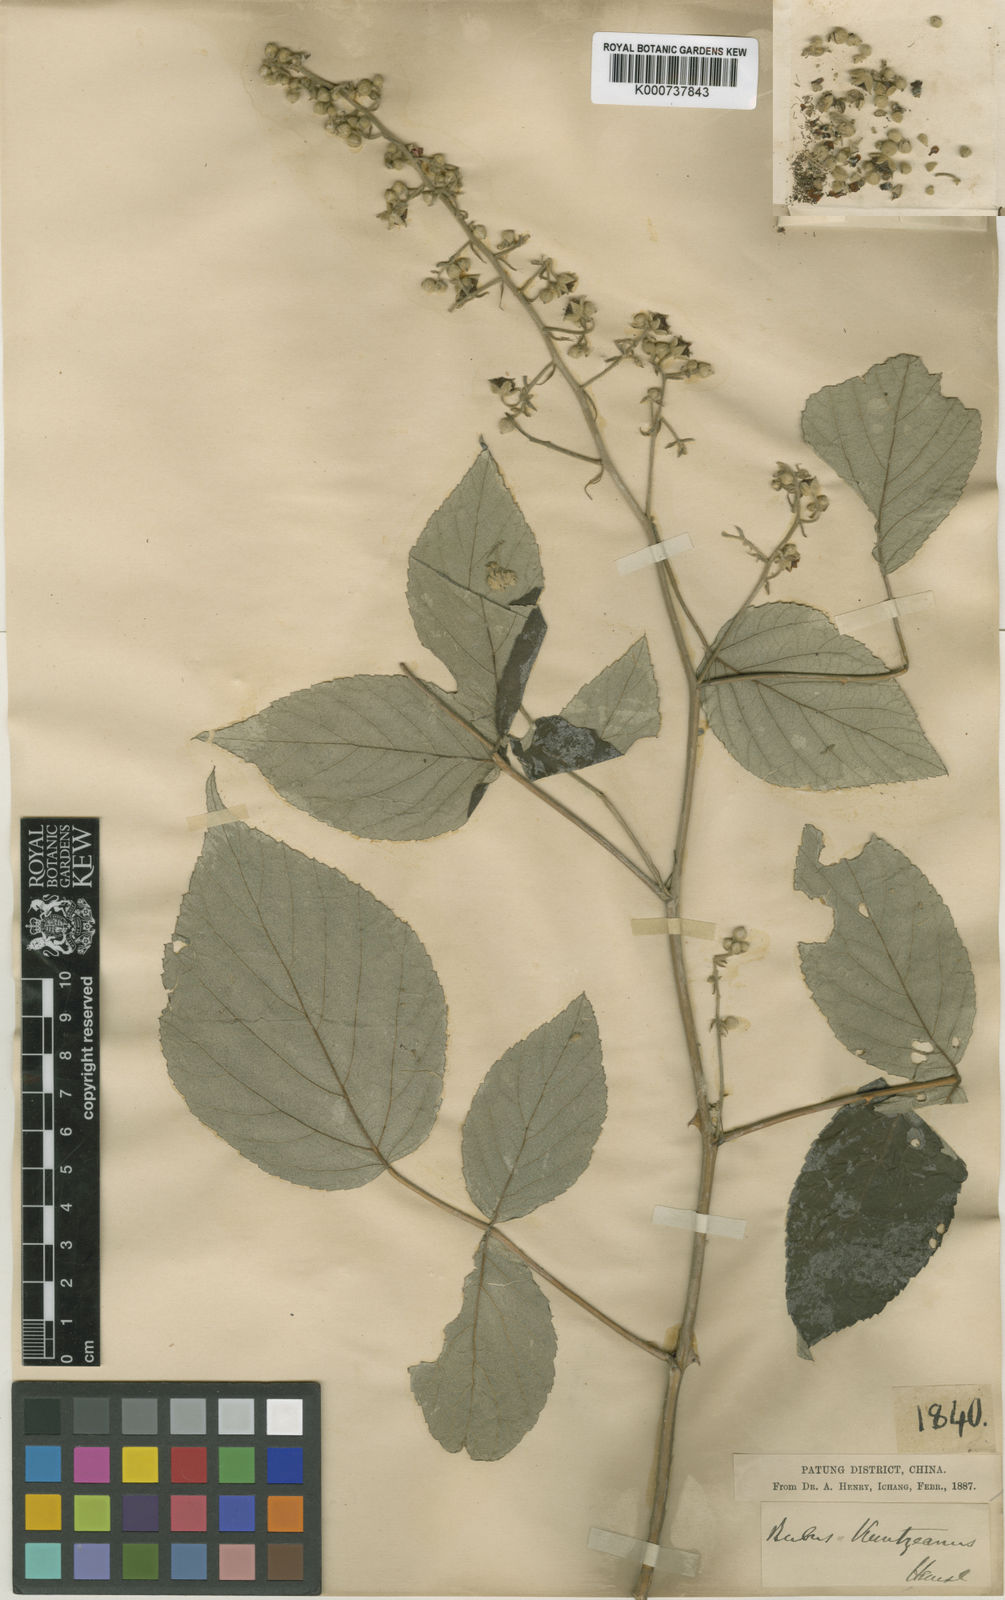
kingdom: Plantae
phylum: Tracheophyta
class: Magnoliopsida
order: Rosales
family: Rosaceae
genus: Rubus
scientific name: Rubus innominatus
